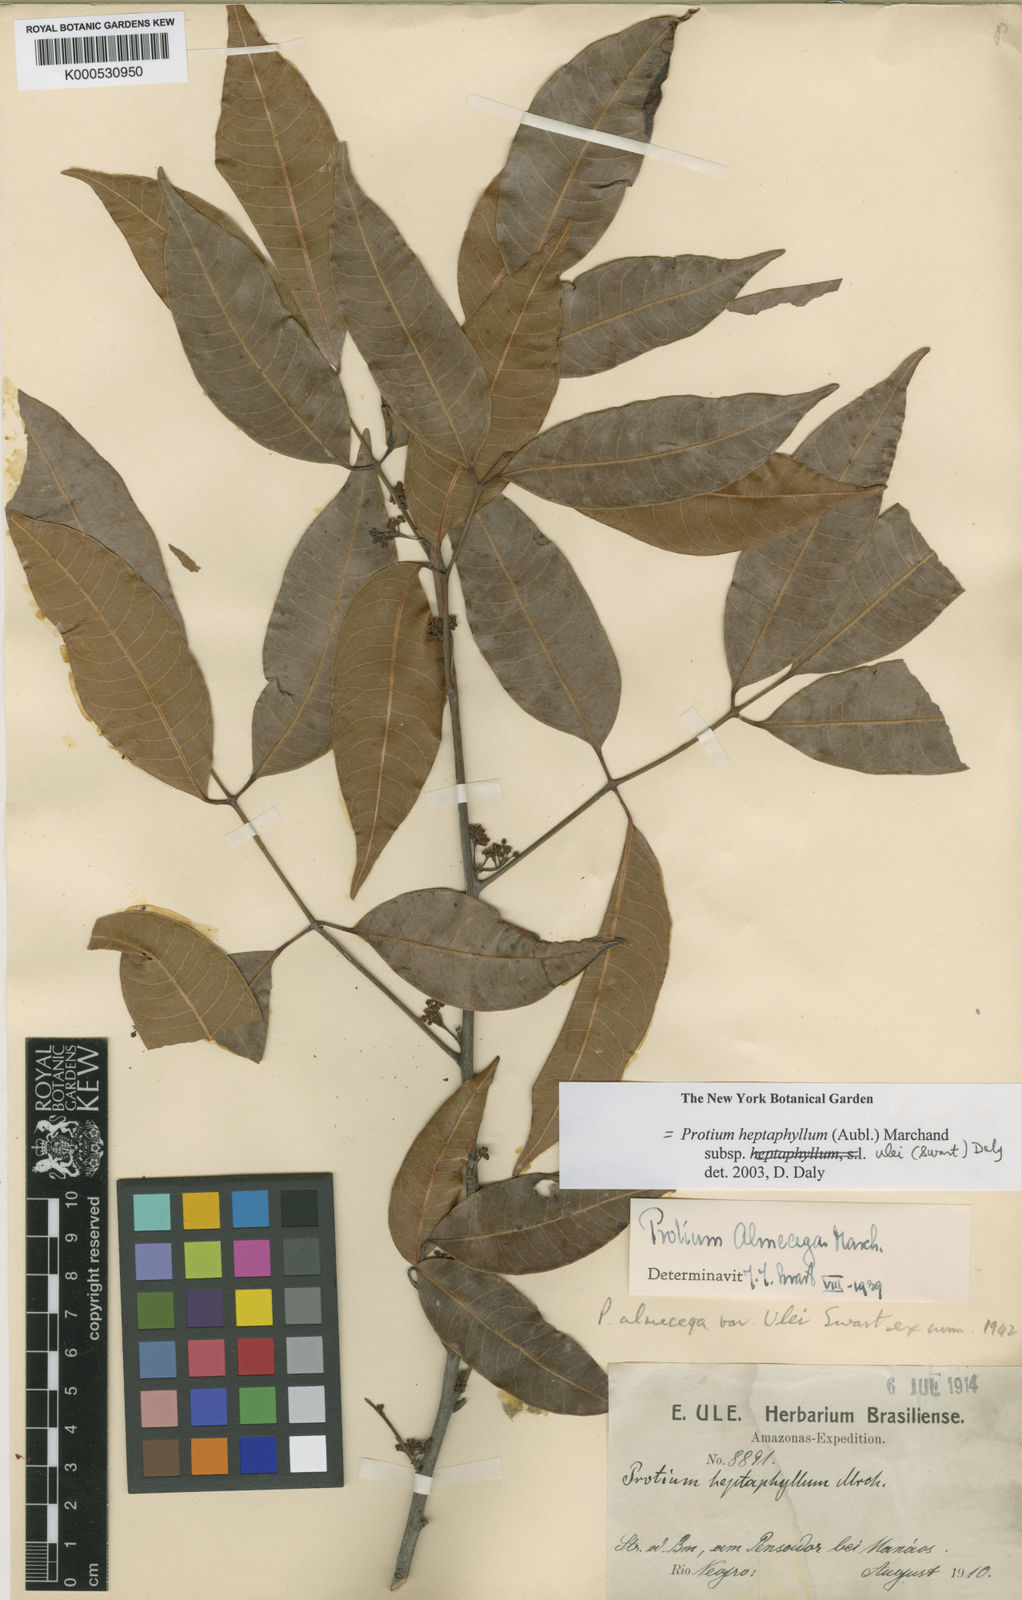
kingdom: Plantae
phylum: Tracheophyta
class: Magnoliopsida
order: Sapindales
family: Burseraceae
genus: Protium
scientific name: Protium heptaphyllum
